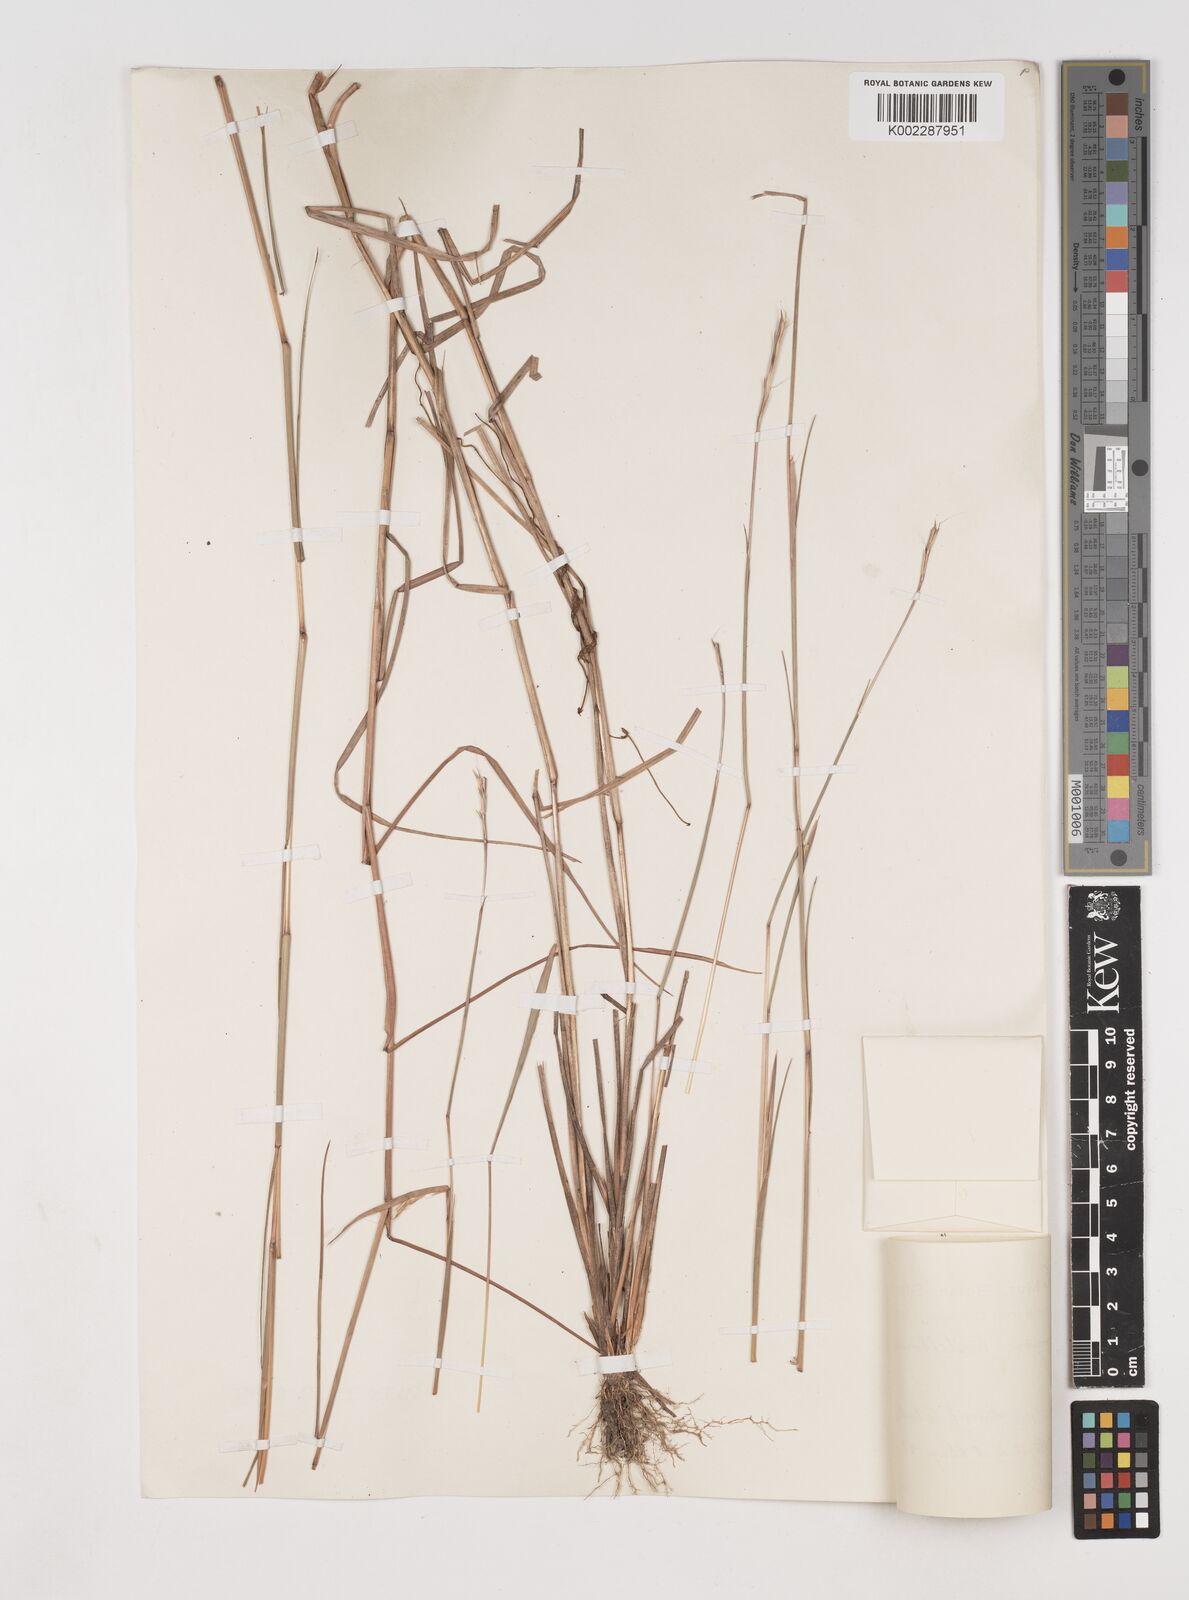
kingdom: Plantae
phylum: Tracheophyta
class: Liliopsida
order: Poales
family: Poaceae
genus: Schizachyrium
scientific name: Schizachyrium sanguineum
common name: Crimson bluestem
